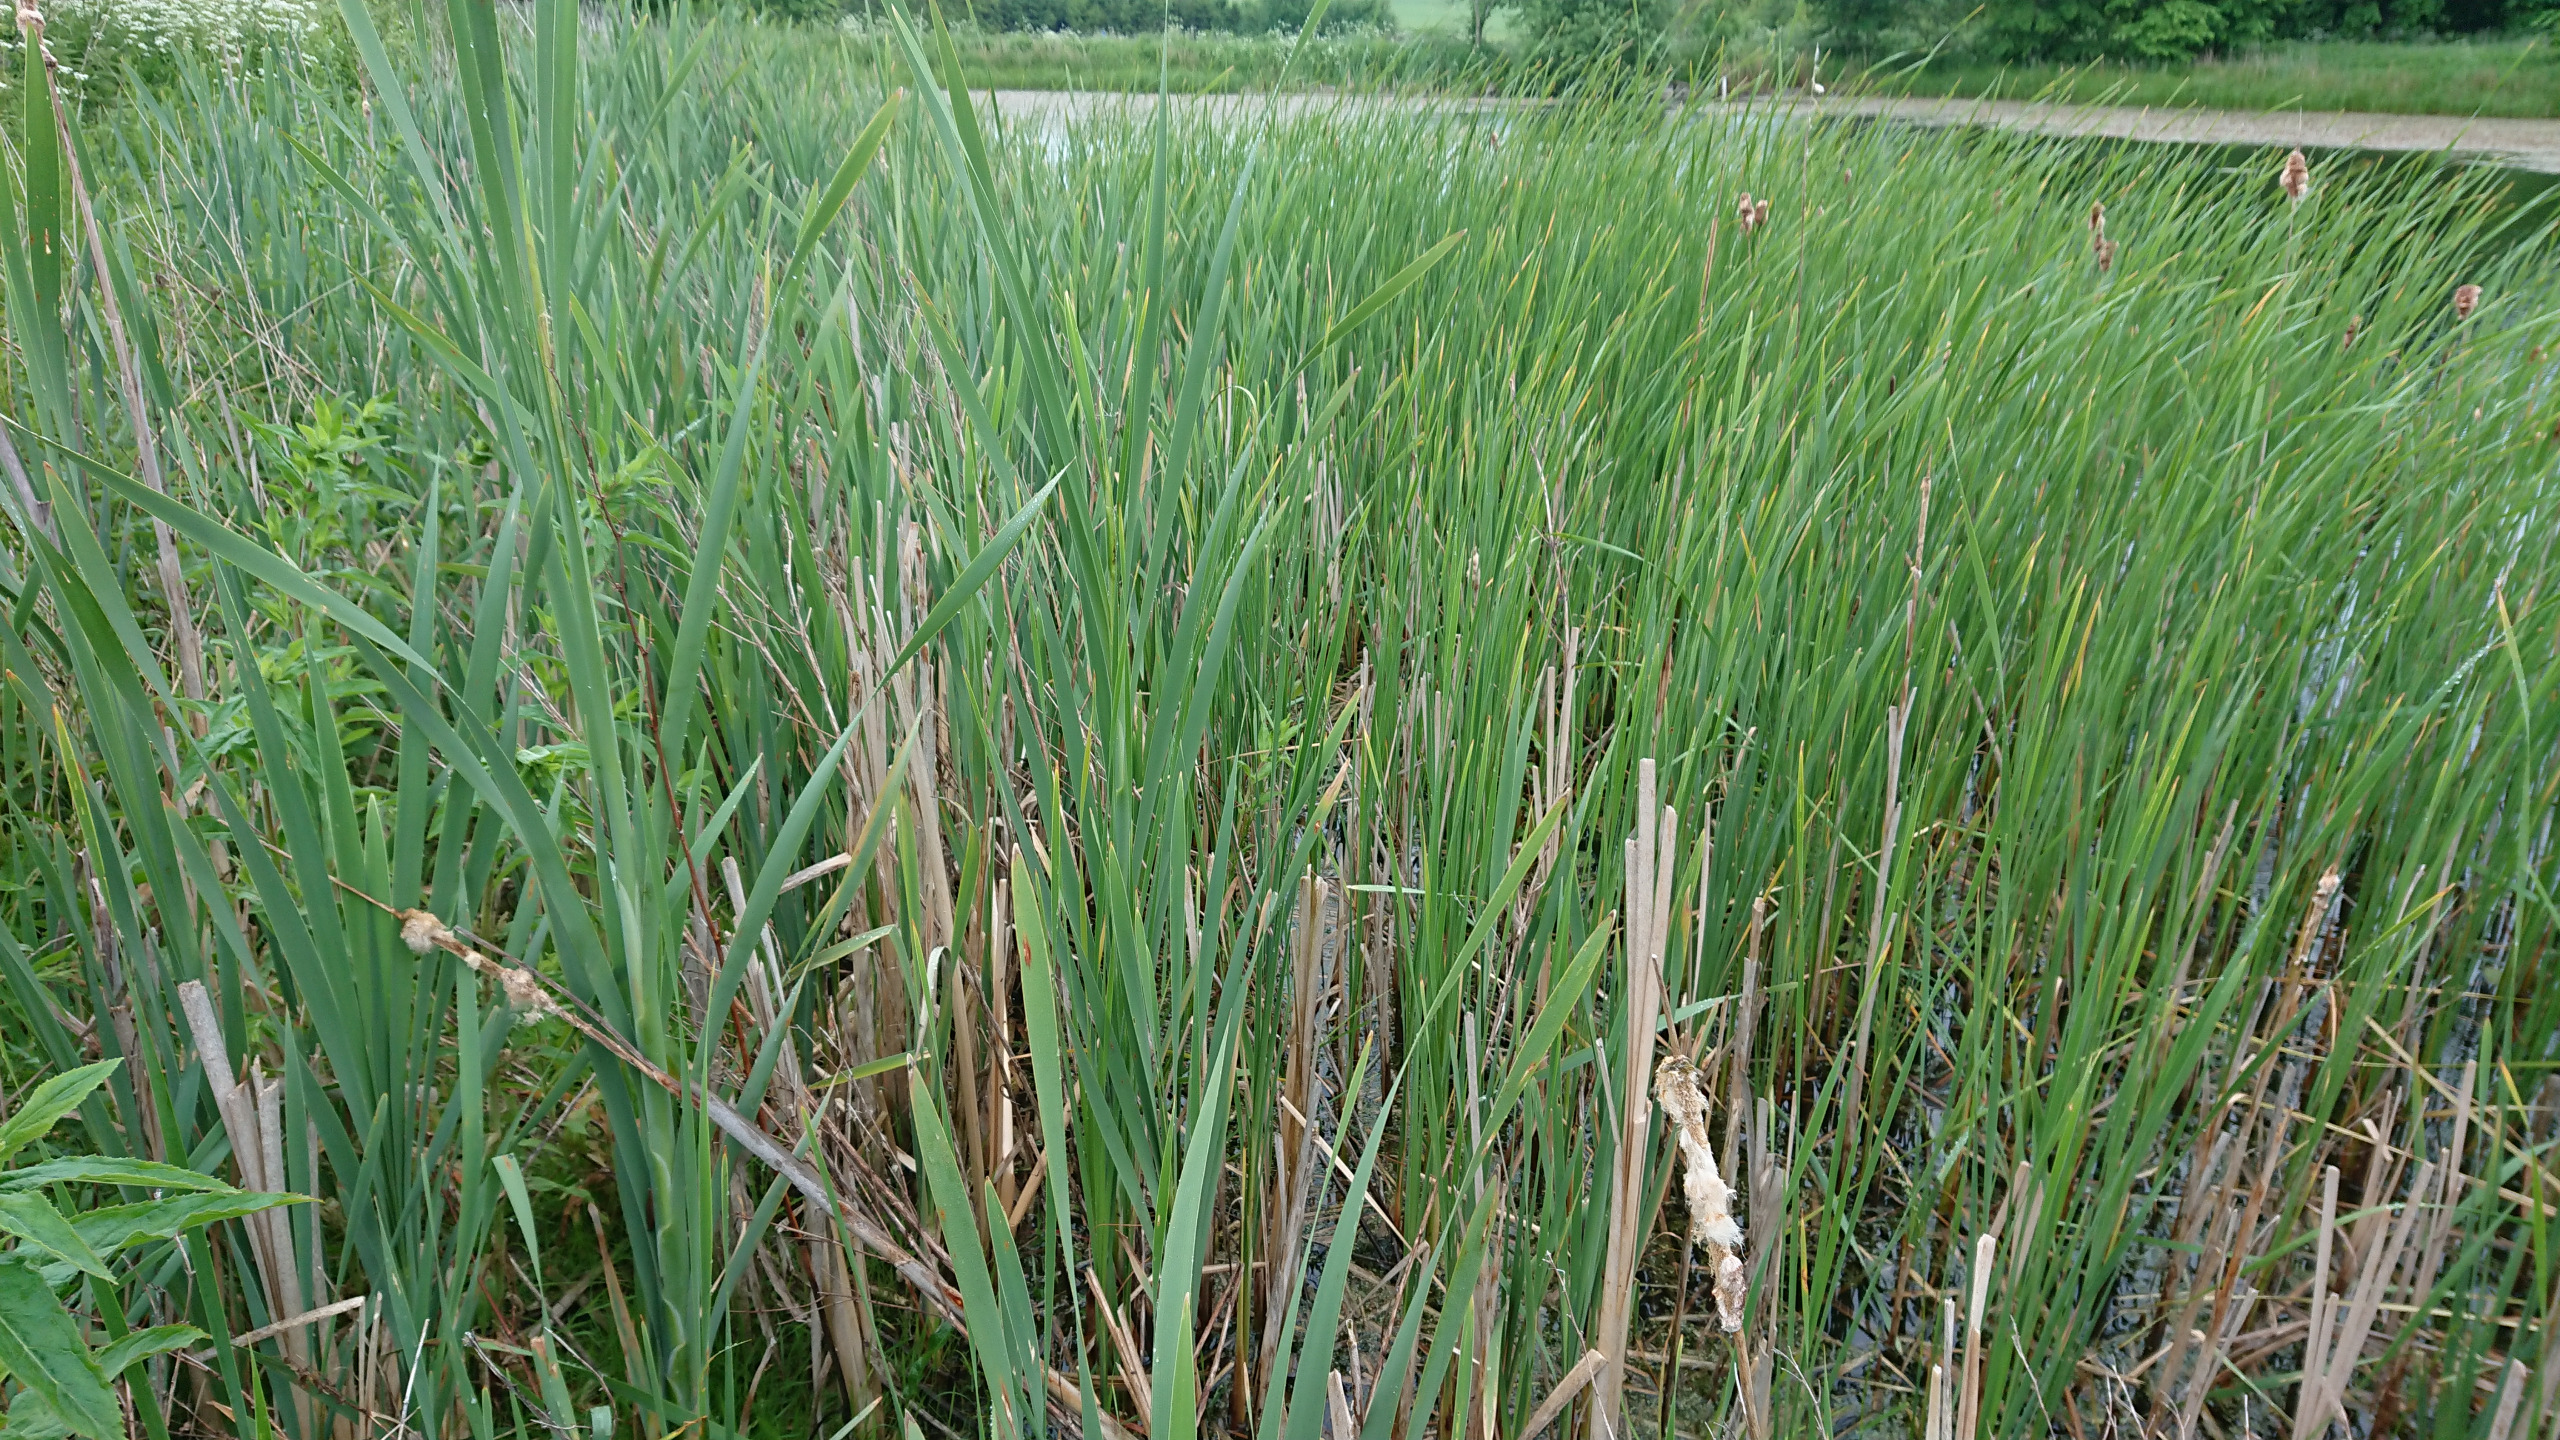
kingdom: Plantae
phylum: Tracheophyta
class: Liliopsida
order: Poales
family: Typhaceae
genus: Typha
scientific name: Typha latifolia
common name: Bredbladet dunhammer
